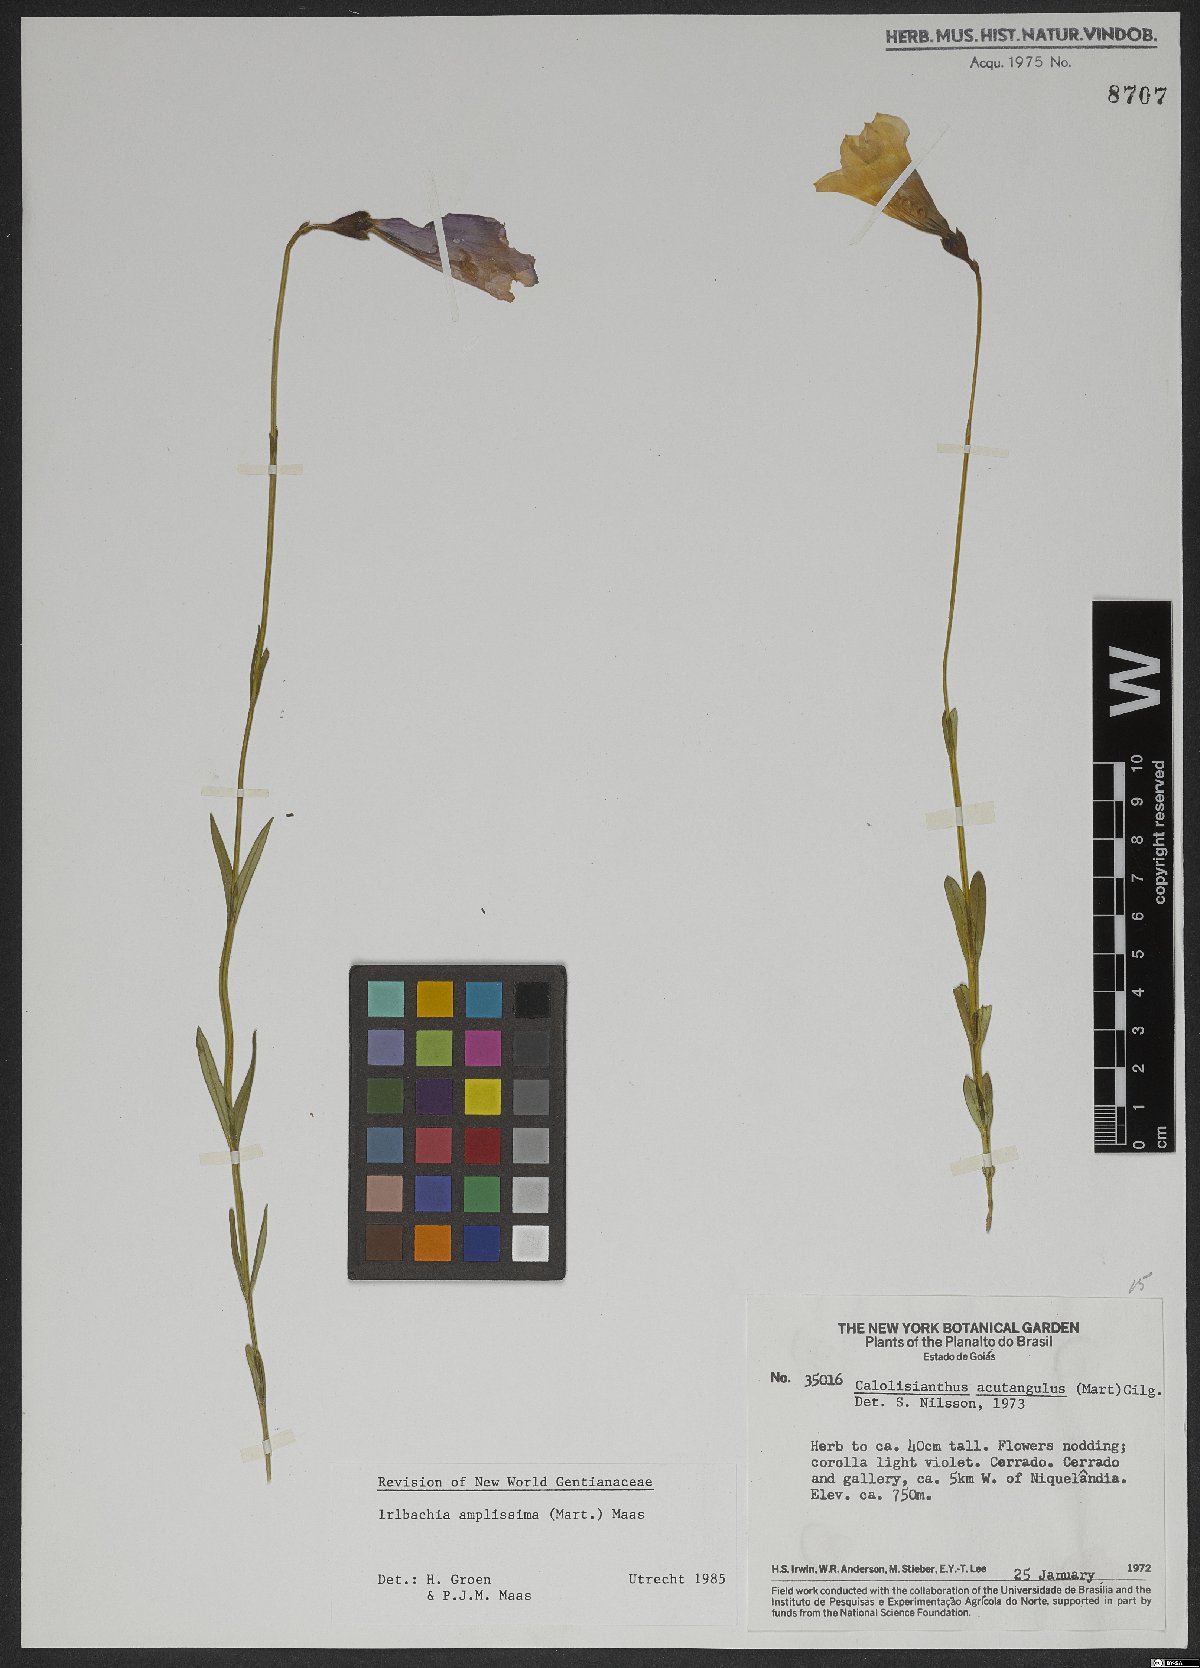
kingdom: Plantae
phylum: Tracheophyta
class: Magnoliopsida
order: Gentianales
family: Gentianaceae
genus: Calolisianthus
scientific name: Calolisianthus amplissimus
